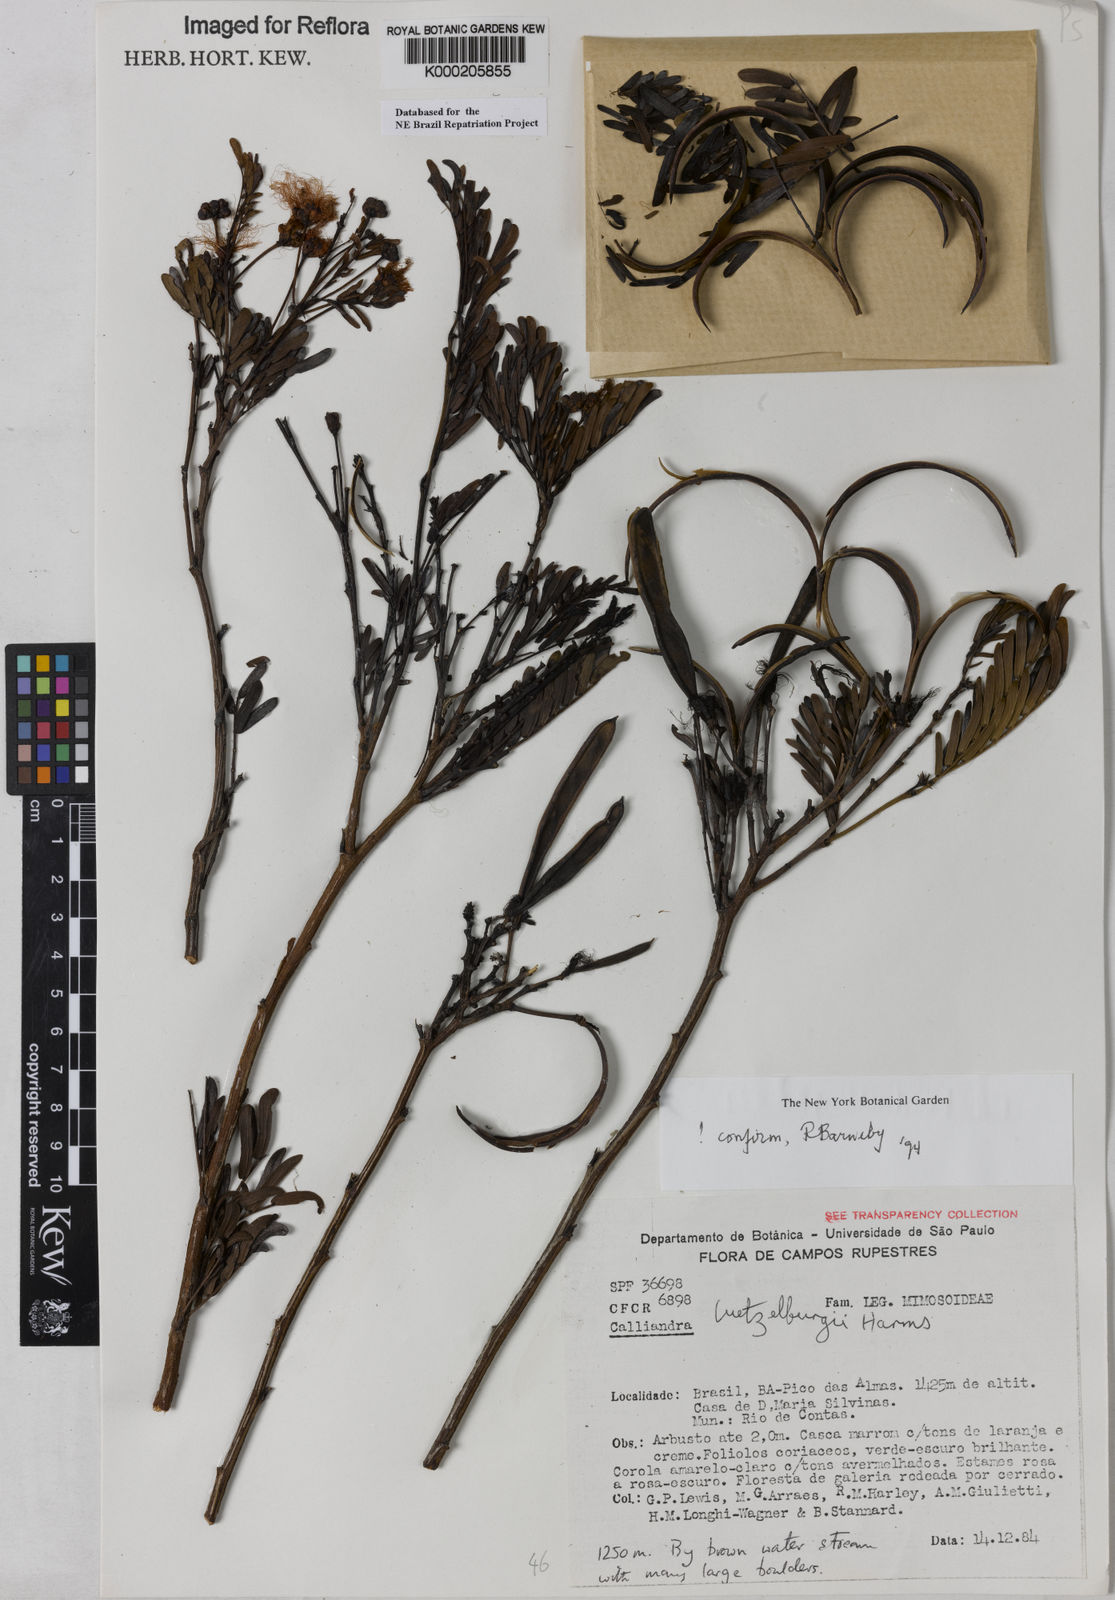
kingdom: Plantae
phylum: Tracheophyta
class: Magnoliopsida
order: Fabales
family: Fabaceae
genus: Calliandra
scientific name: Calliandra luetzelburgii
